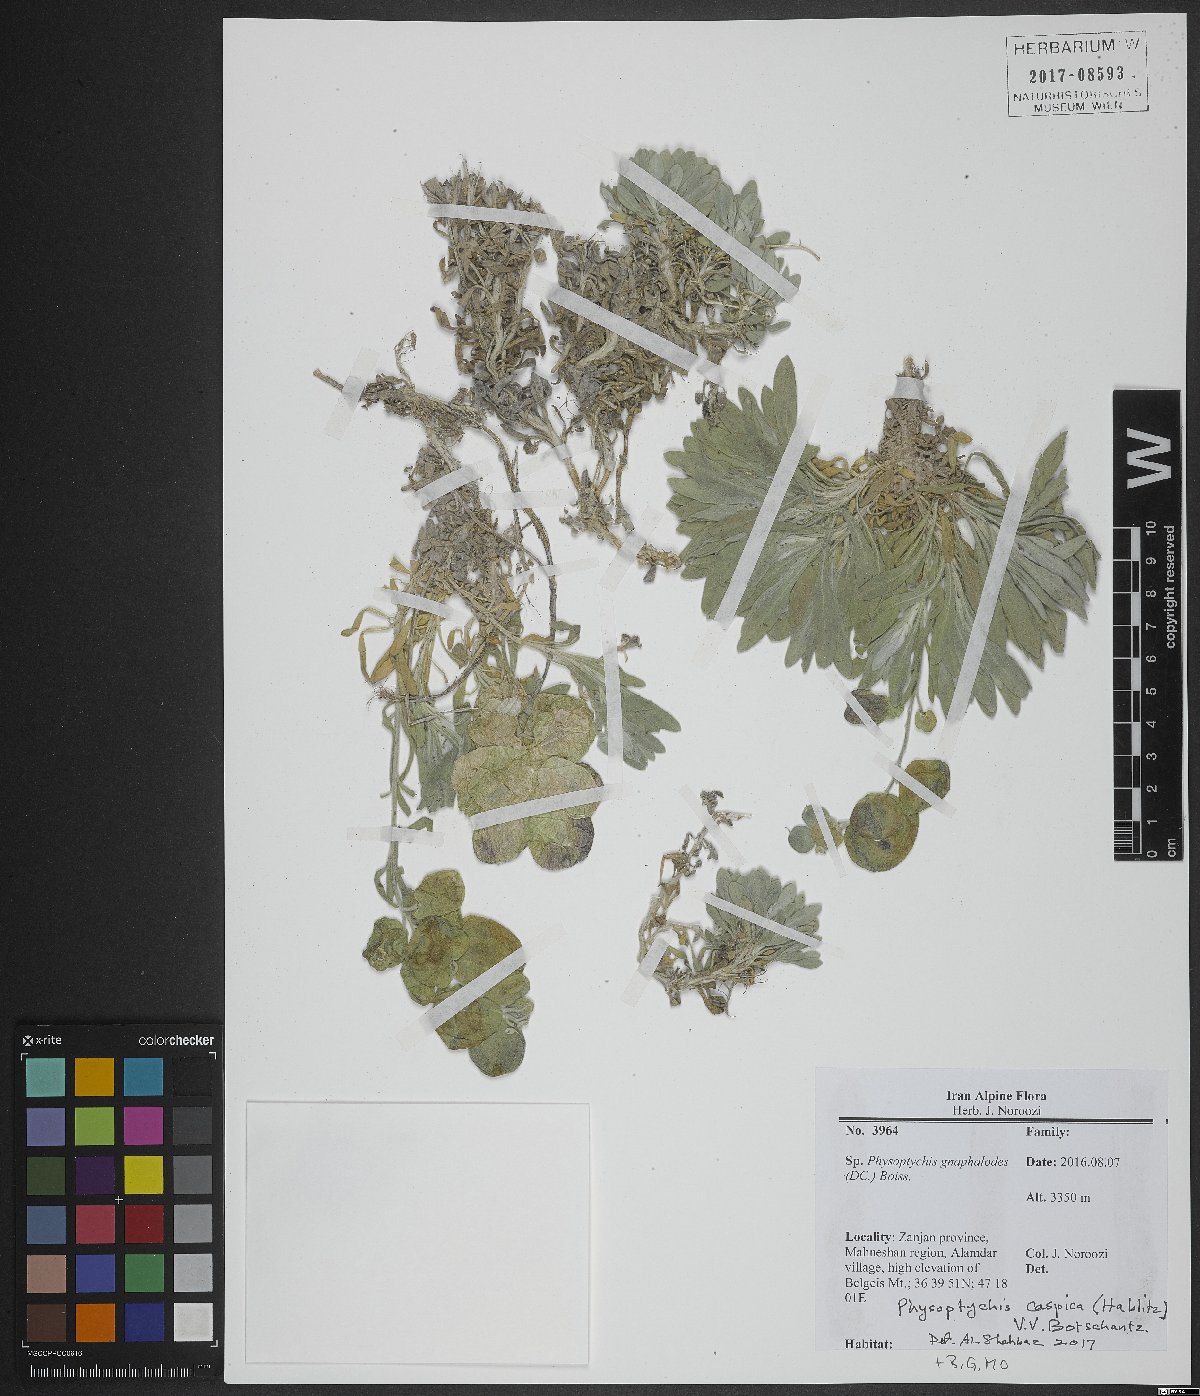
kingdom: Plantae
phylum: Tracheophyta
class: Magnoliopsida
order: Brassicales
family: Brassicaceae
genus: Physoptychis
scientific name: Physoptychis caspica
